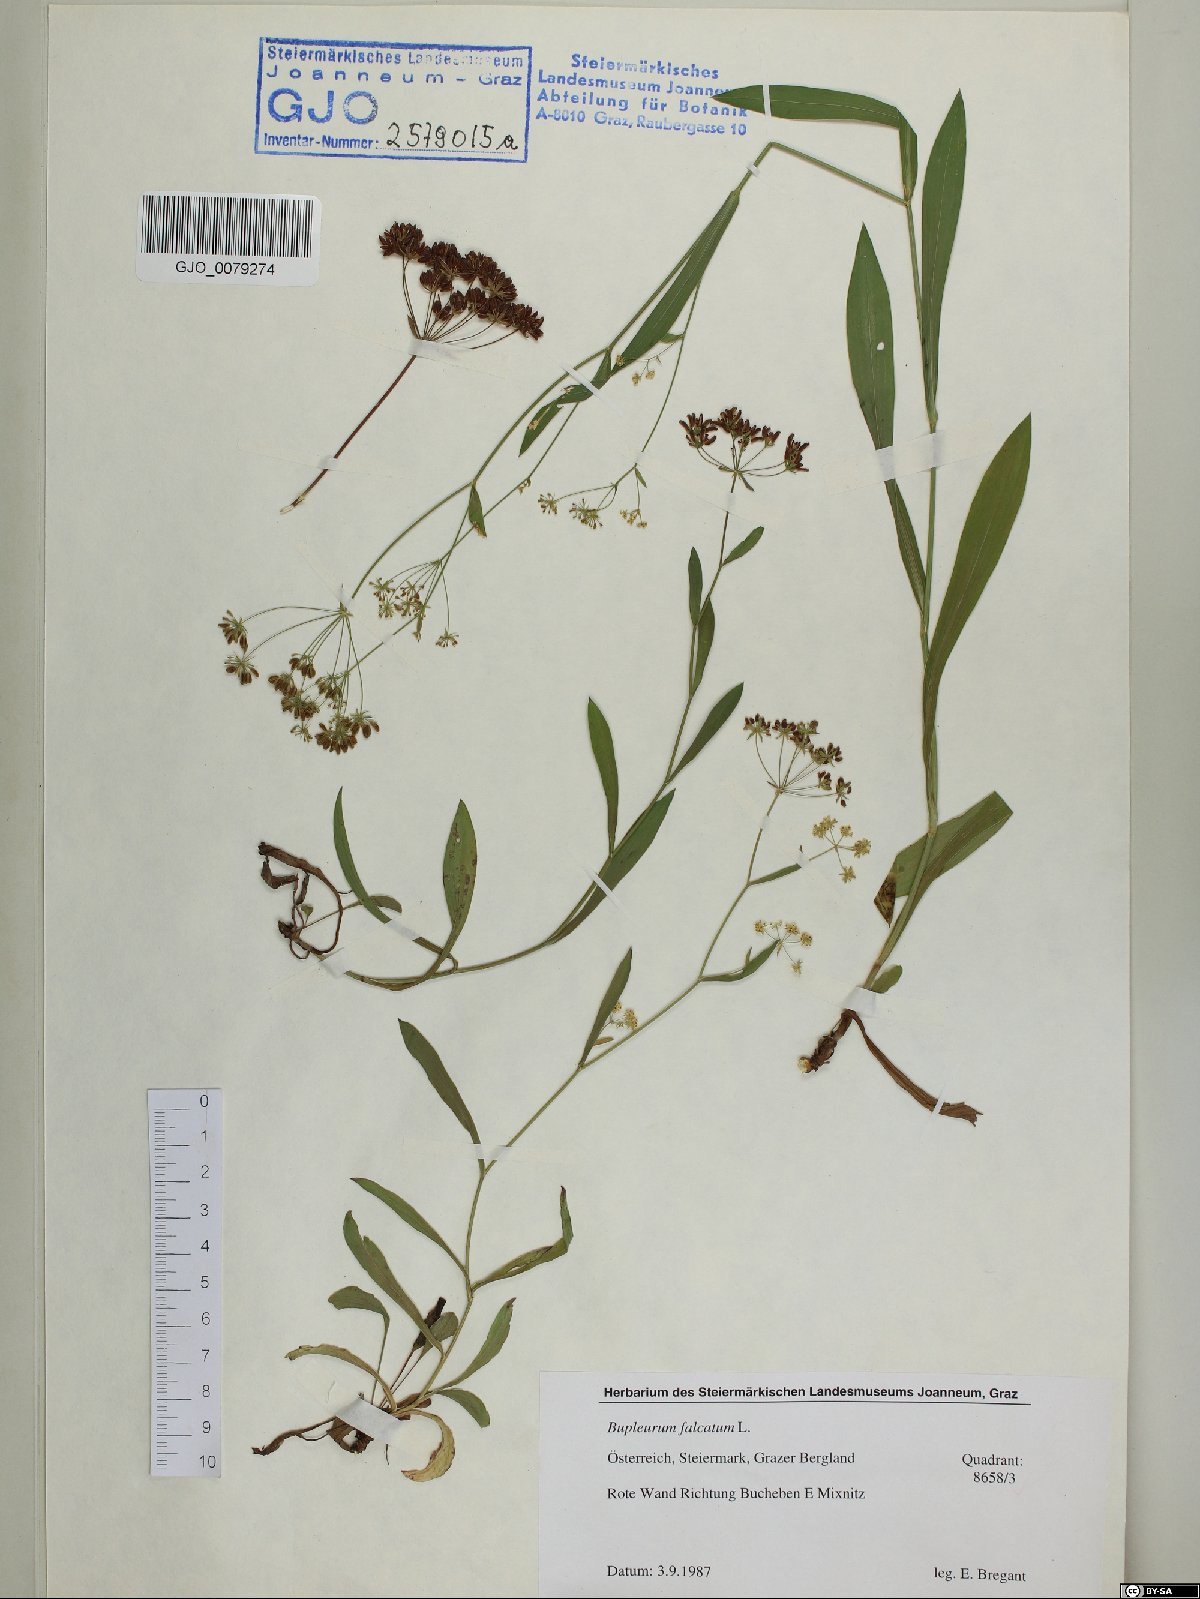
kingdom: Plantae
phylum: Tracheophyta
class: Magnoliopsida
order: Apiales
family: Apiaceae
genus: Bupleurum
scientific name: Bupleurum falcatum
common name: Sickle-leaved hare's-ear
